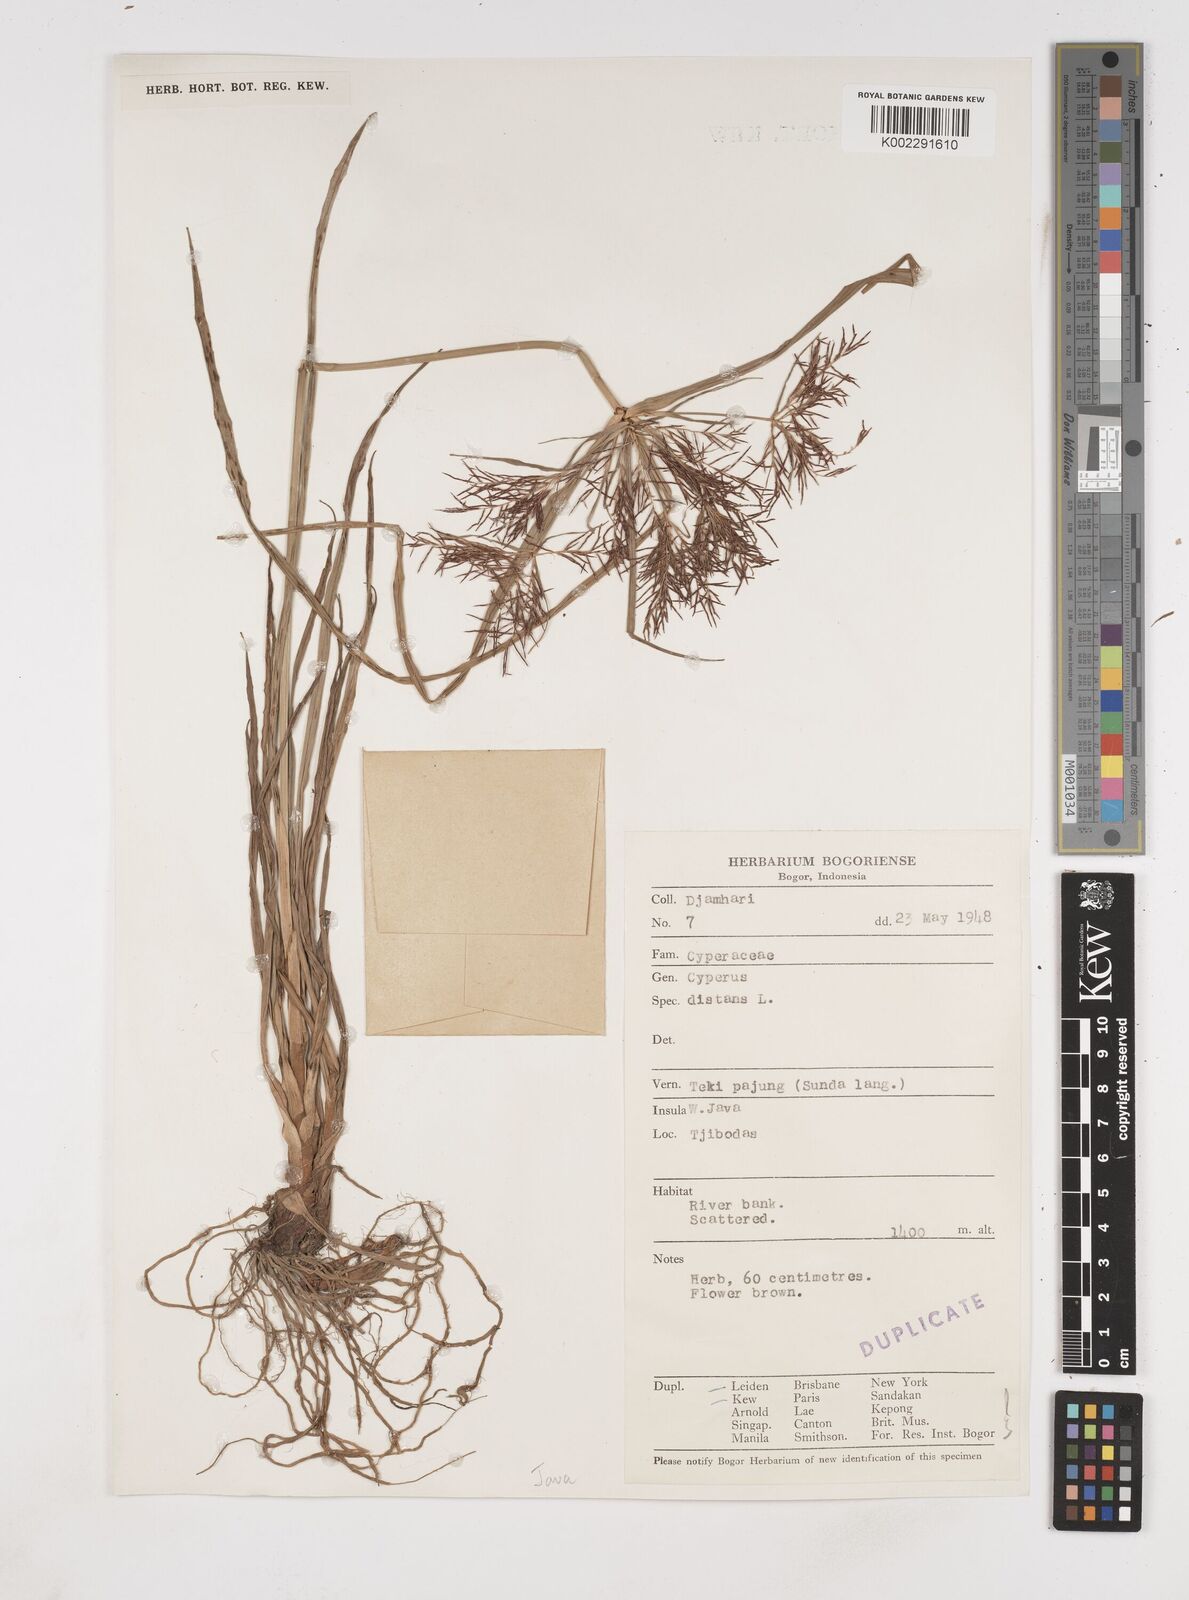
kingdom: Plantae
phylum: Tracheophyta
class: Liliopsida
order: Poales
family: Cyperaceae
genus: Cyperus
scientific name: Cyperus distans
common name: Slender cyperus
